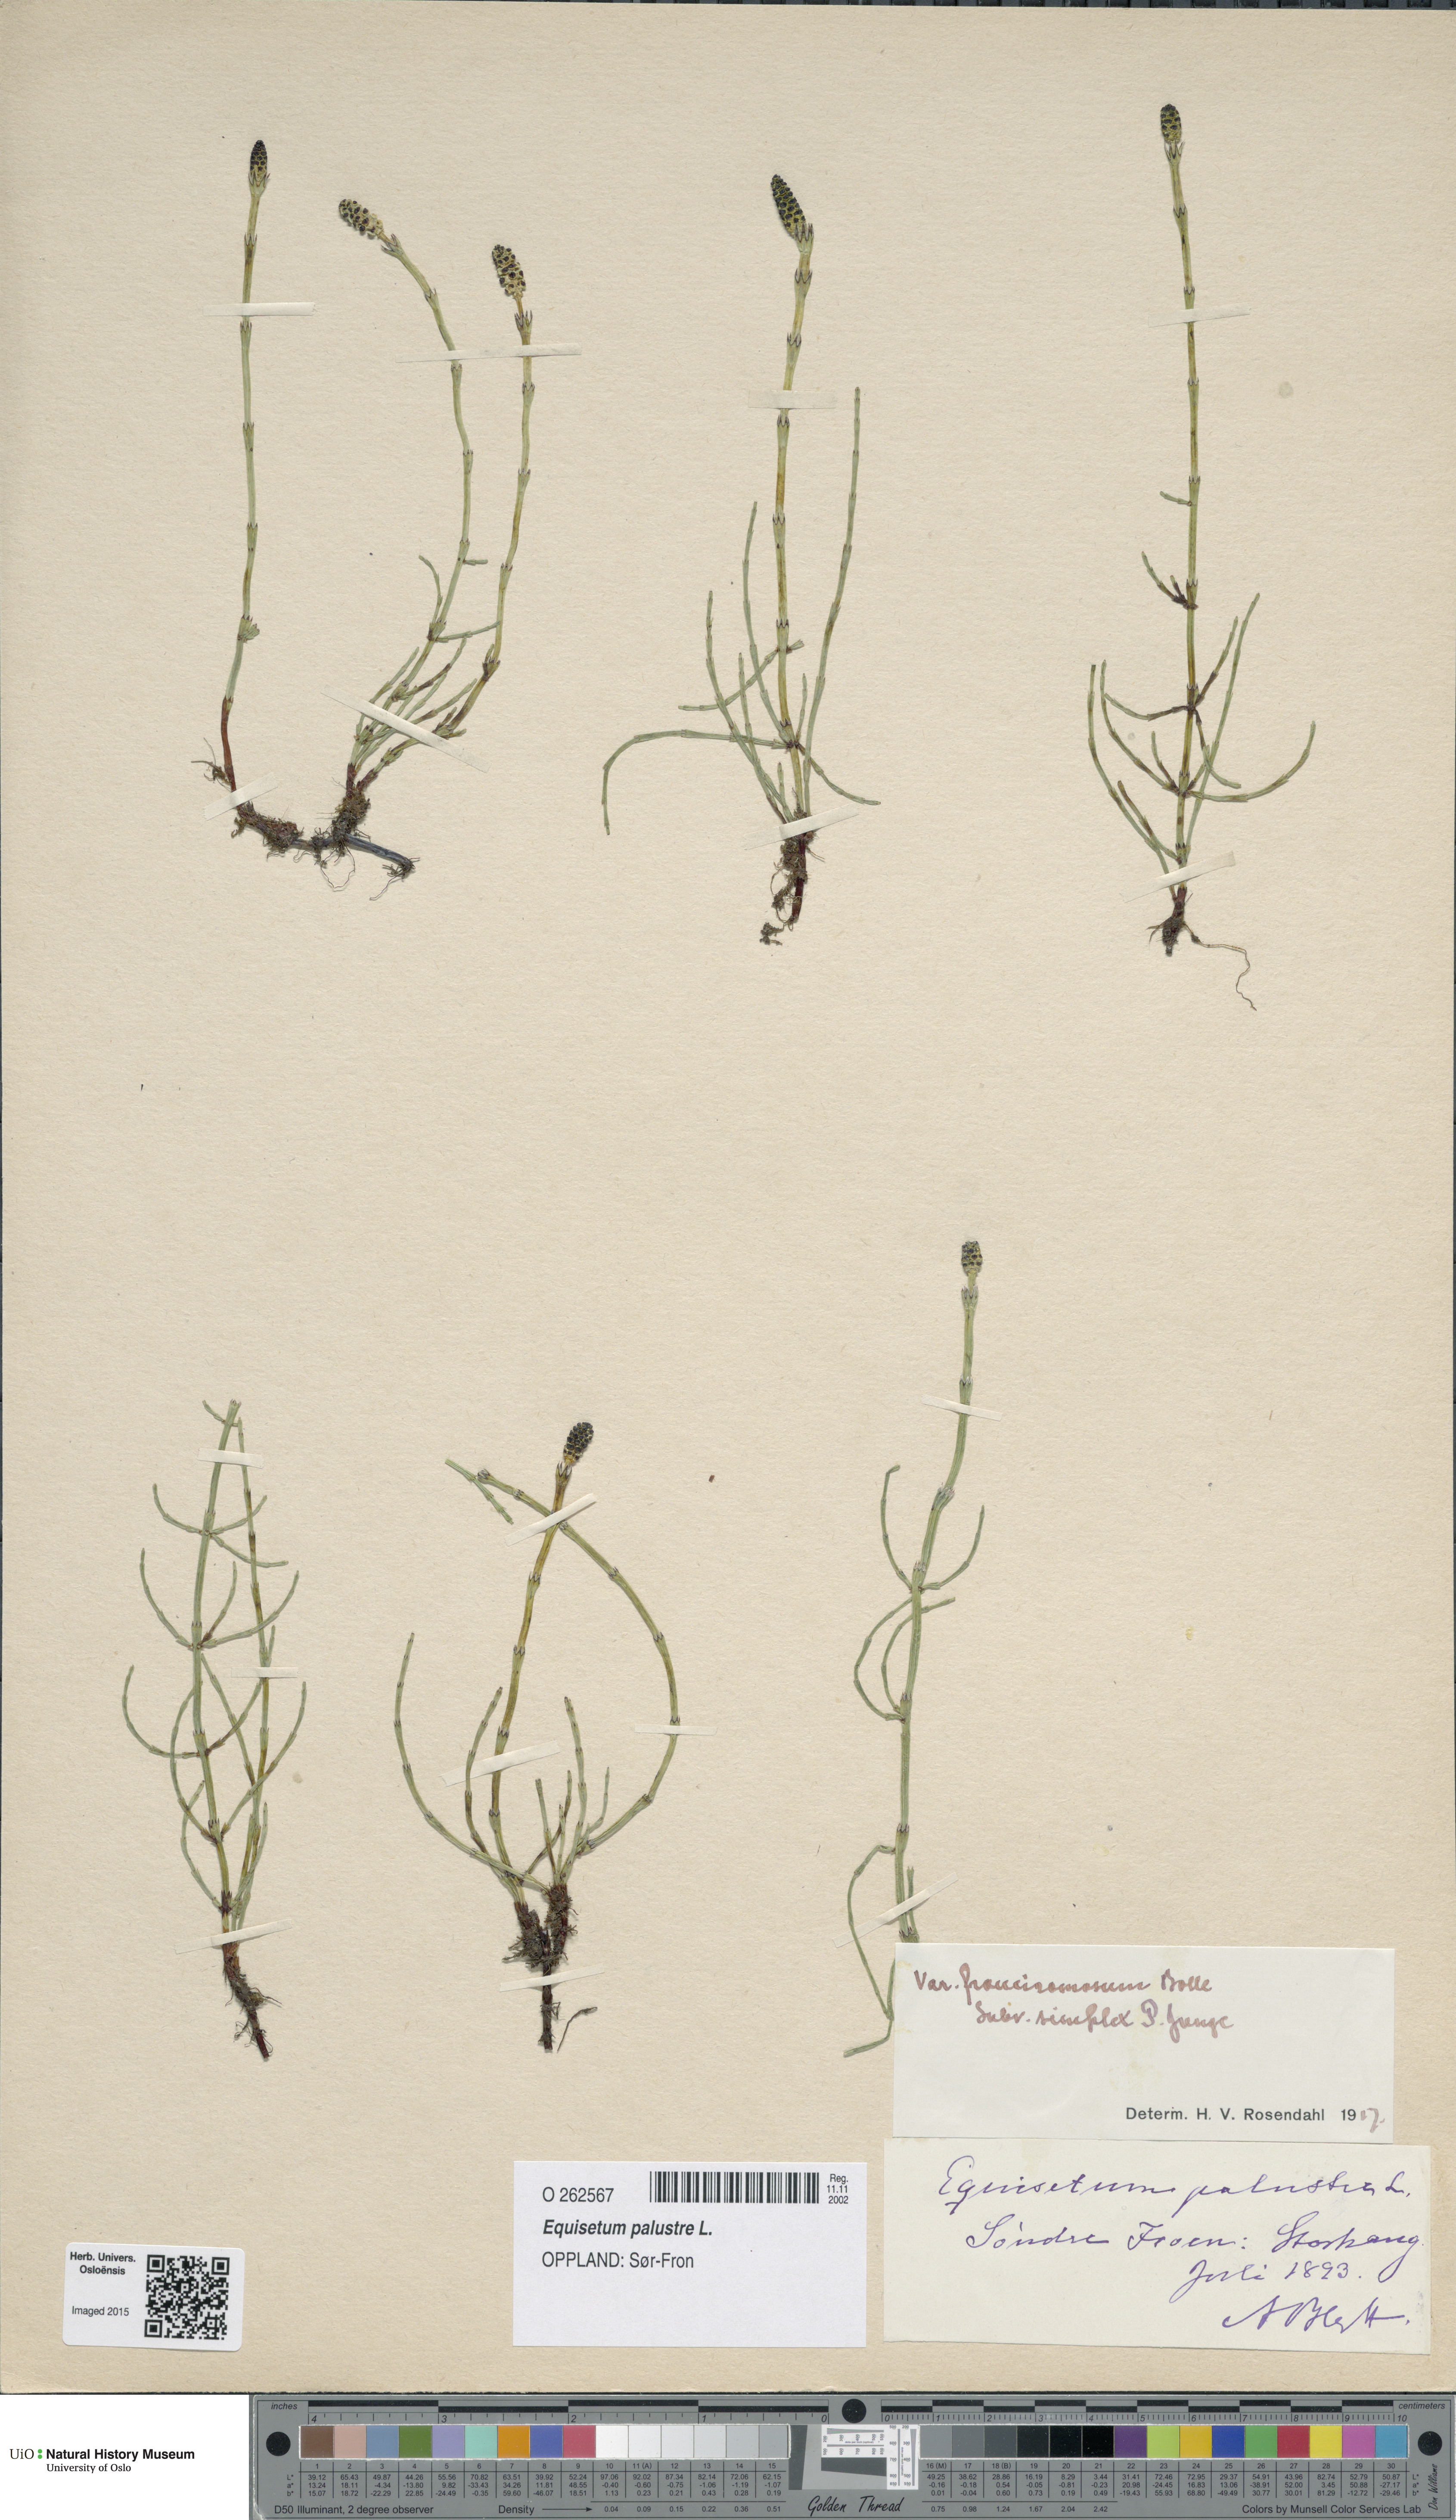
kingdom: Plantae
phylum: Tracheophyta
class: Polypodiopsida
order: Equisetales
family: Equisetaceae
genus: Equisetum
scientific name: Equisetum palustre
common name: Marsh horsetail
